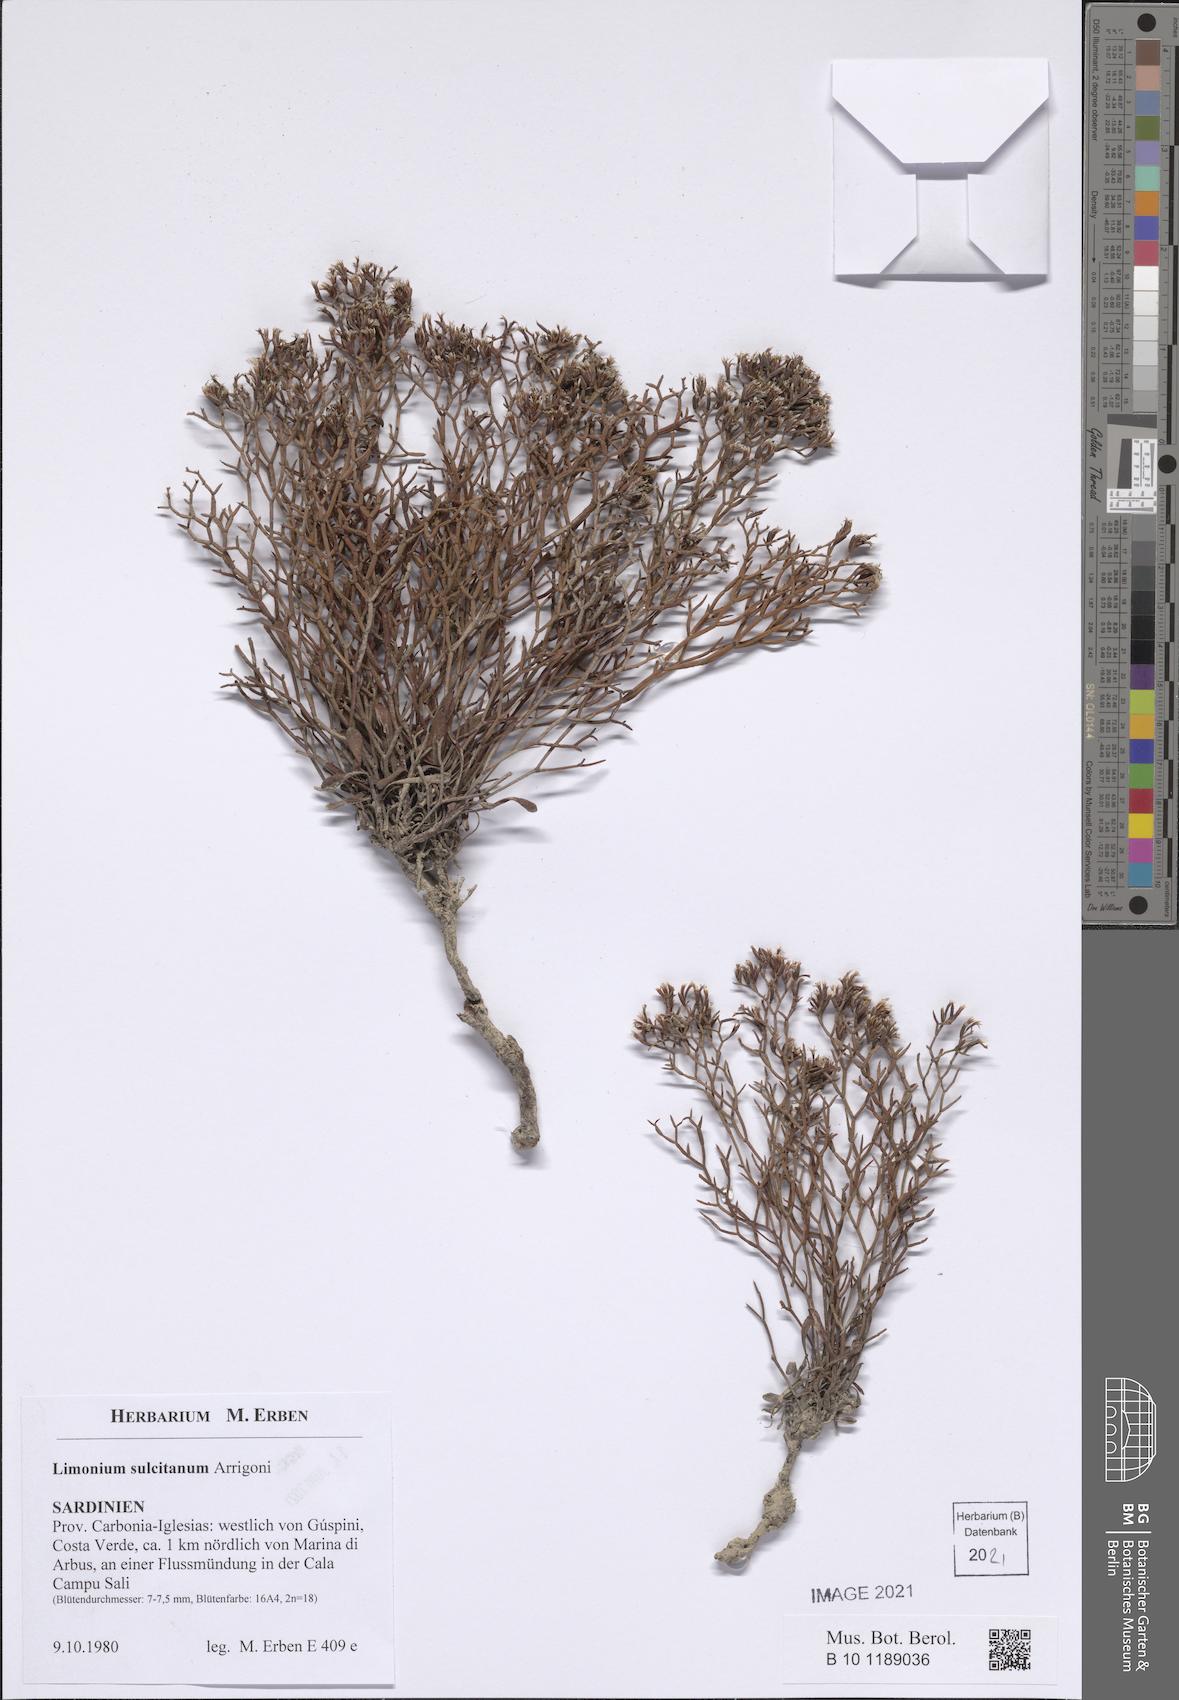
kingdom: Plantae
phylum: Tracheophyta
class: Magnoliopsida
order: Caryophyllales
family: Plumbaginaceae
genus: Limonium
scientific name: Limonium sulcitanum
